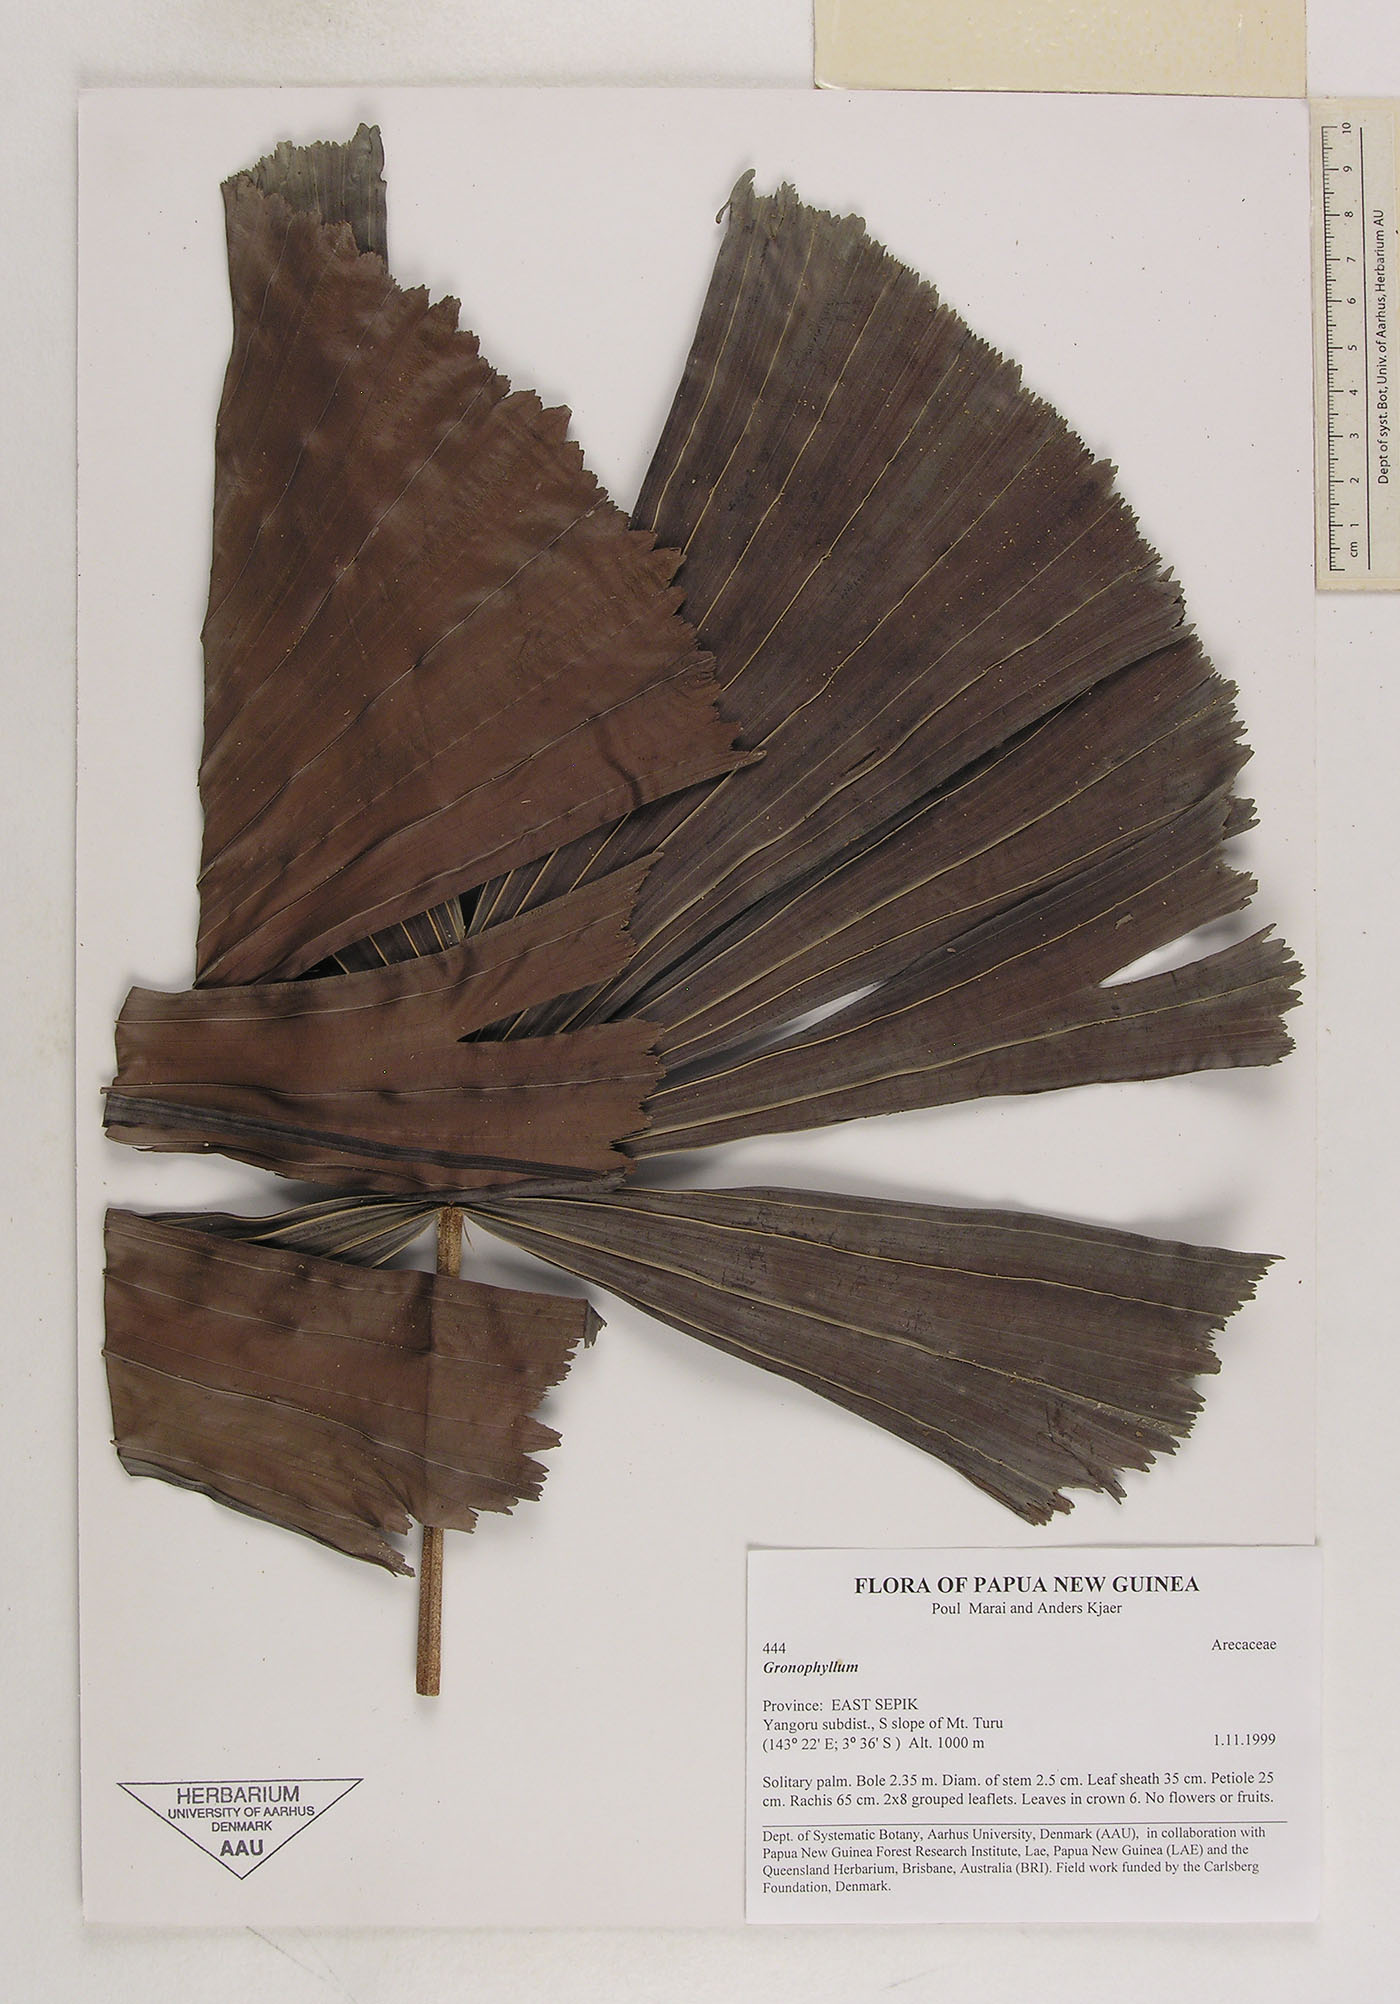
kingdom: Plantae
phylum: Tracheophyta
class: Liliopsida
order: Arecales
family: Arecaceae
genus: Hydriastele
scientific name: Hydriastele
